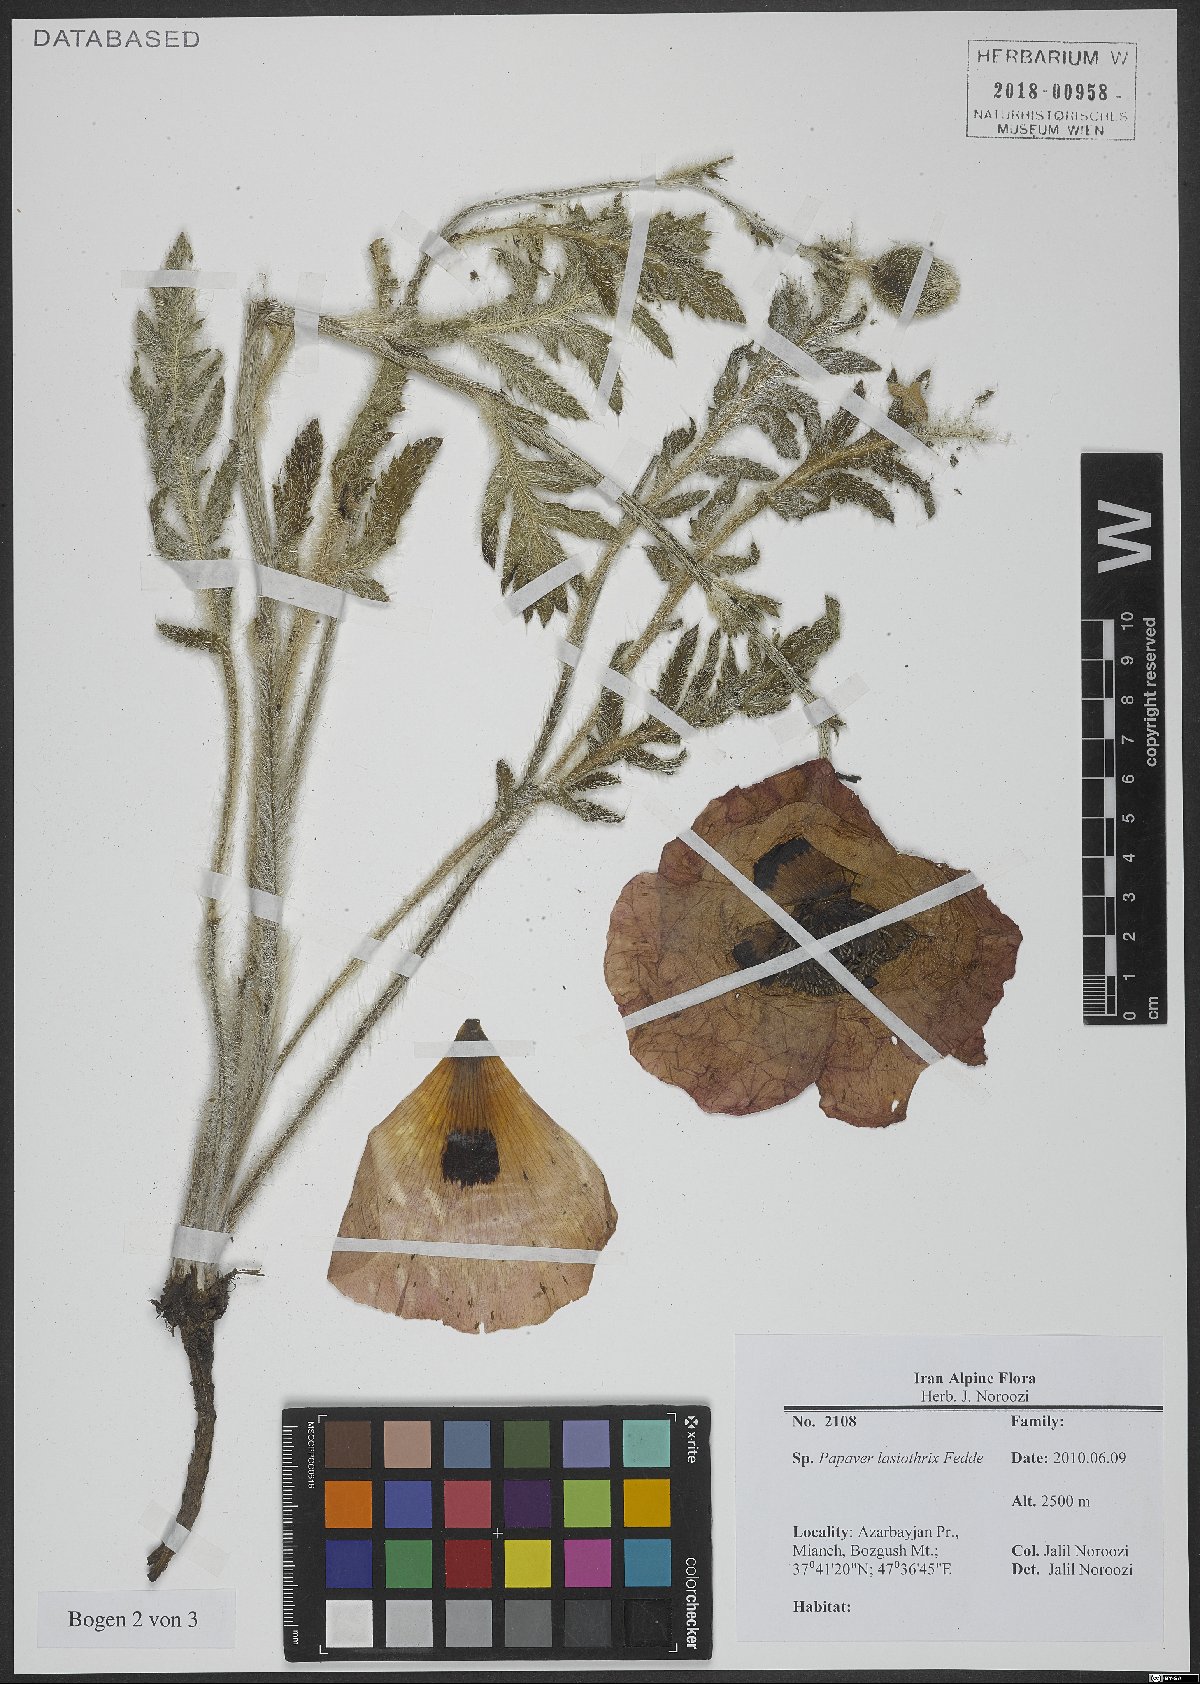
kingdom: Plantae
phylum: Tracheophyta
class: Magnoliopsida
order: Ranunculales
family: Papaveraceae
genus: Papaver
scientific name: Papaver setiferum
